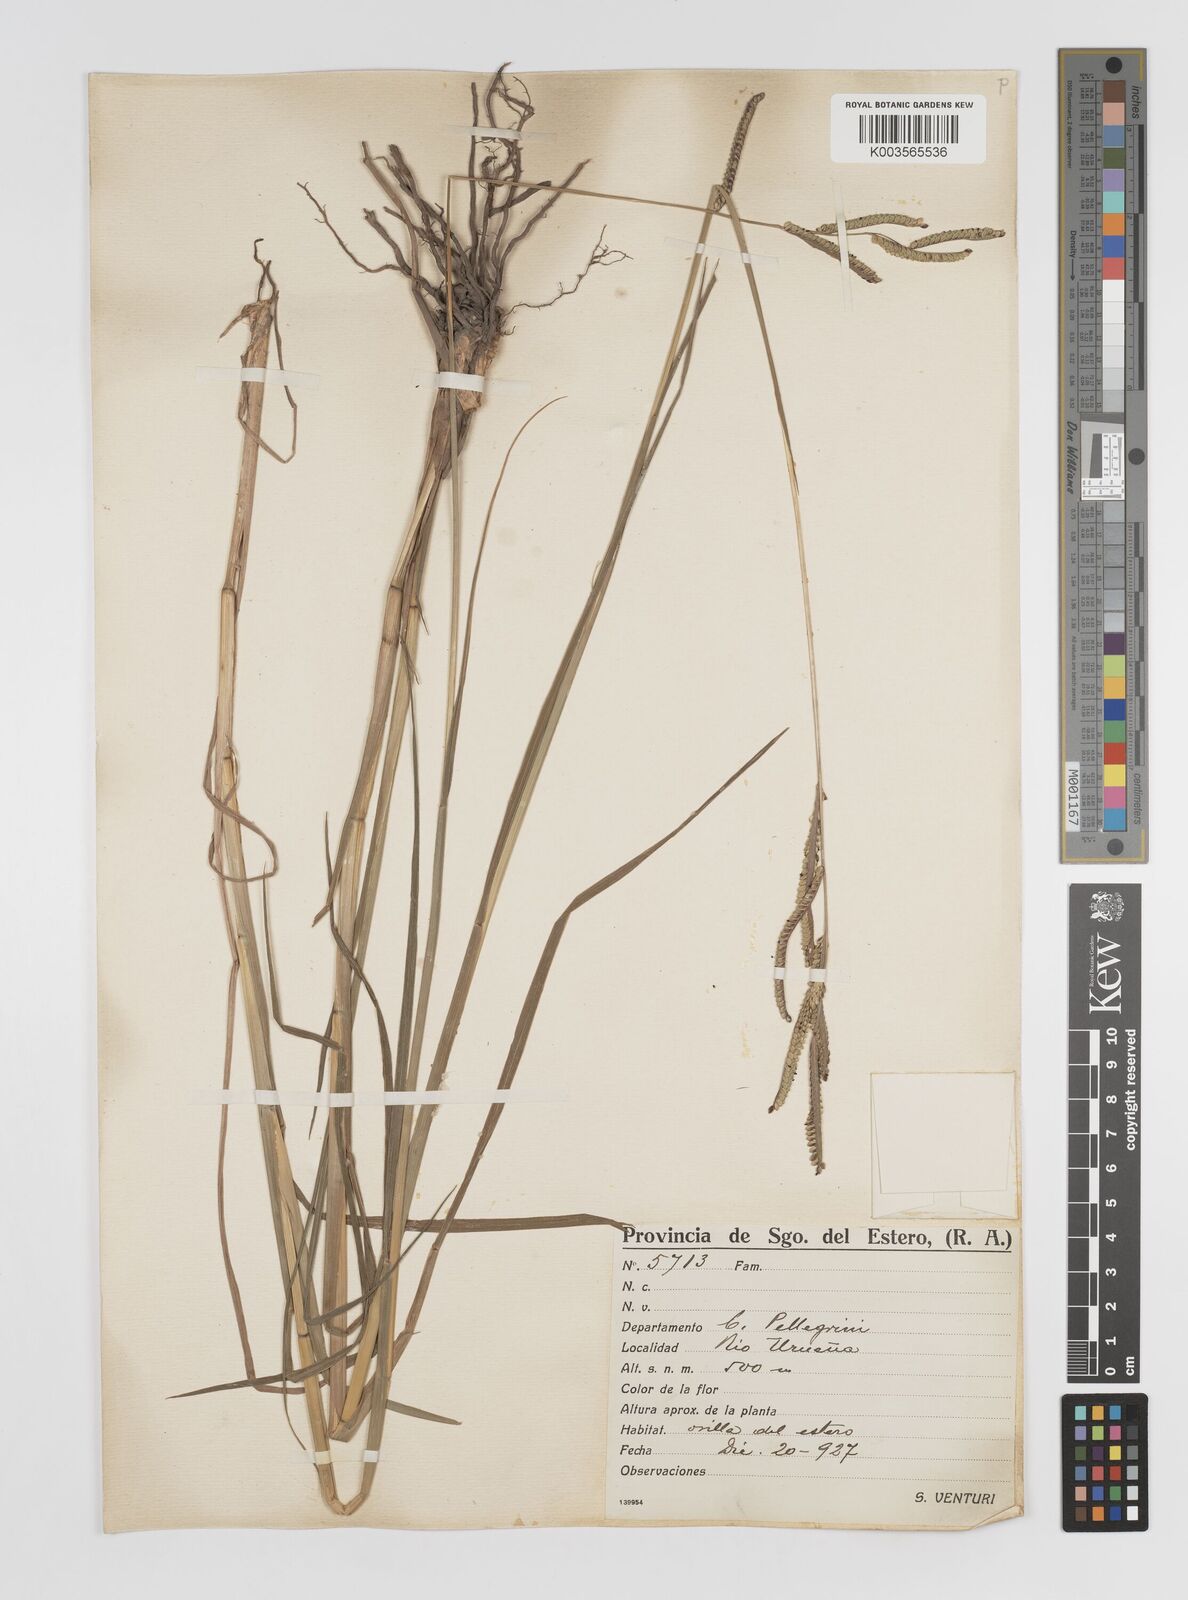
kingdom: Plantae
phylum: Tracheophyta
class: Liliopsida
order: Poales
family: Poaceae
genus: Paspalum
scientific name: Paspalum
